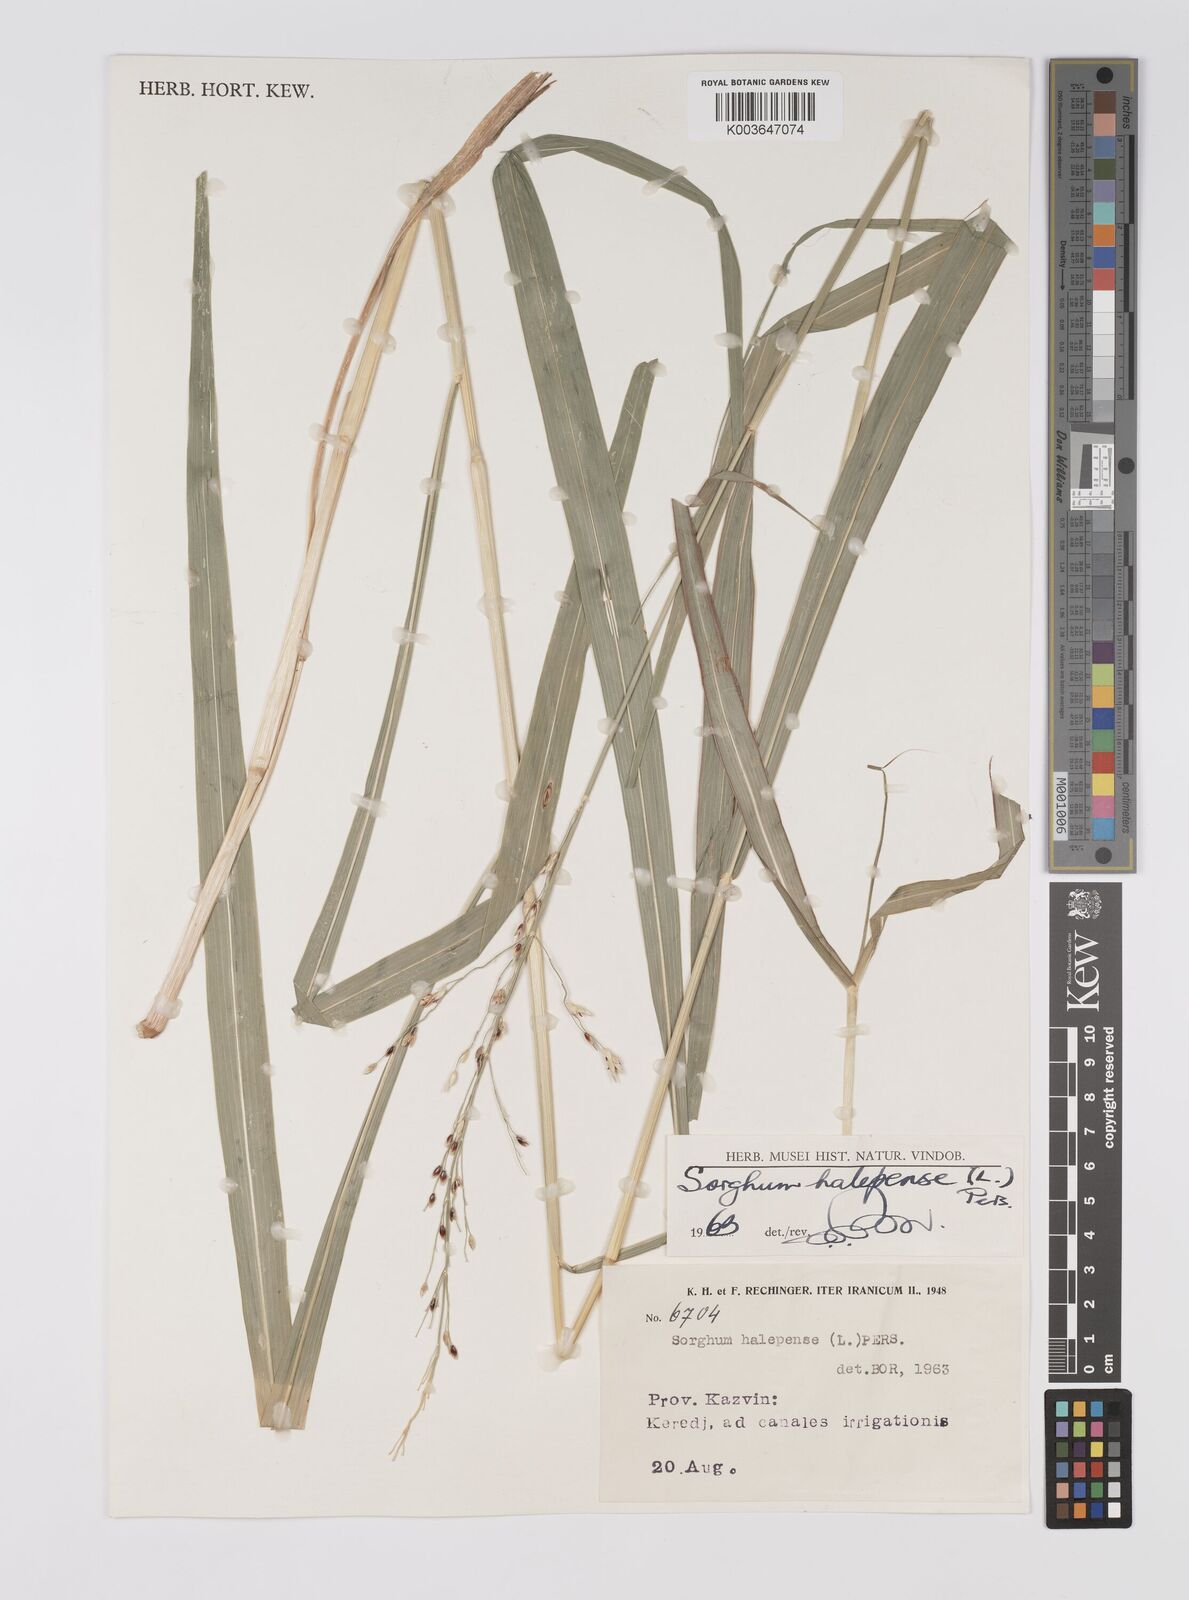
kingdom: Plantae
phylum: Tracheophyta
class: Liliopsida
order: Poales
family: Poaceae
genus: Sorghum
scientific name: Sorghum halepense
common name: Johnson-grass
